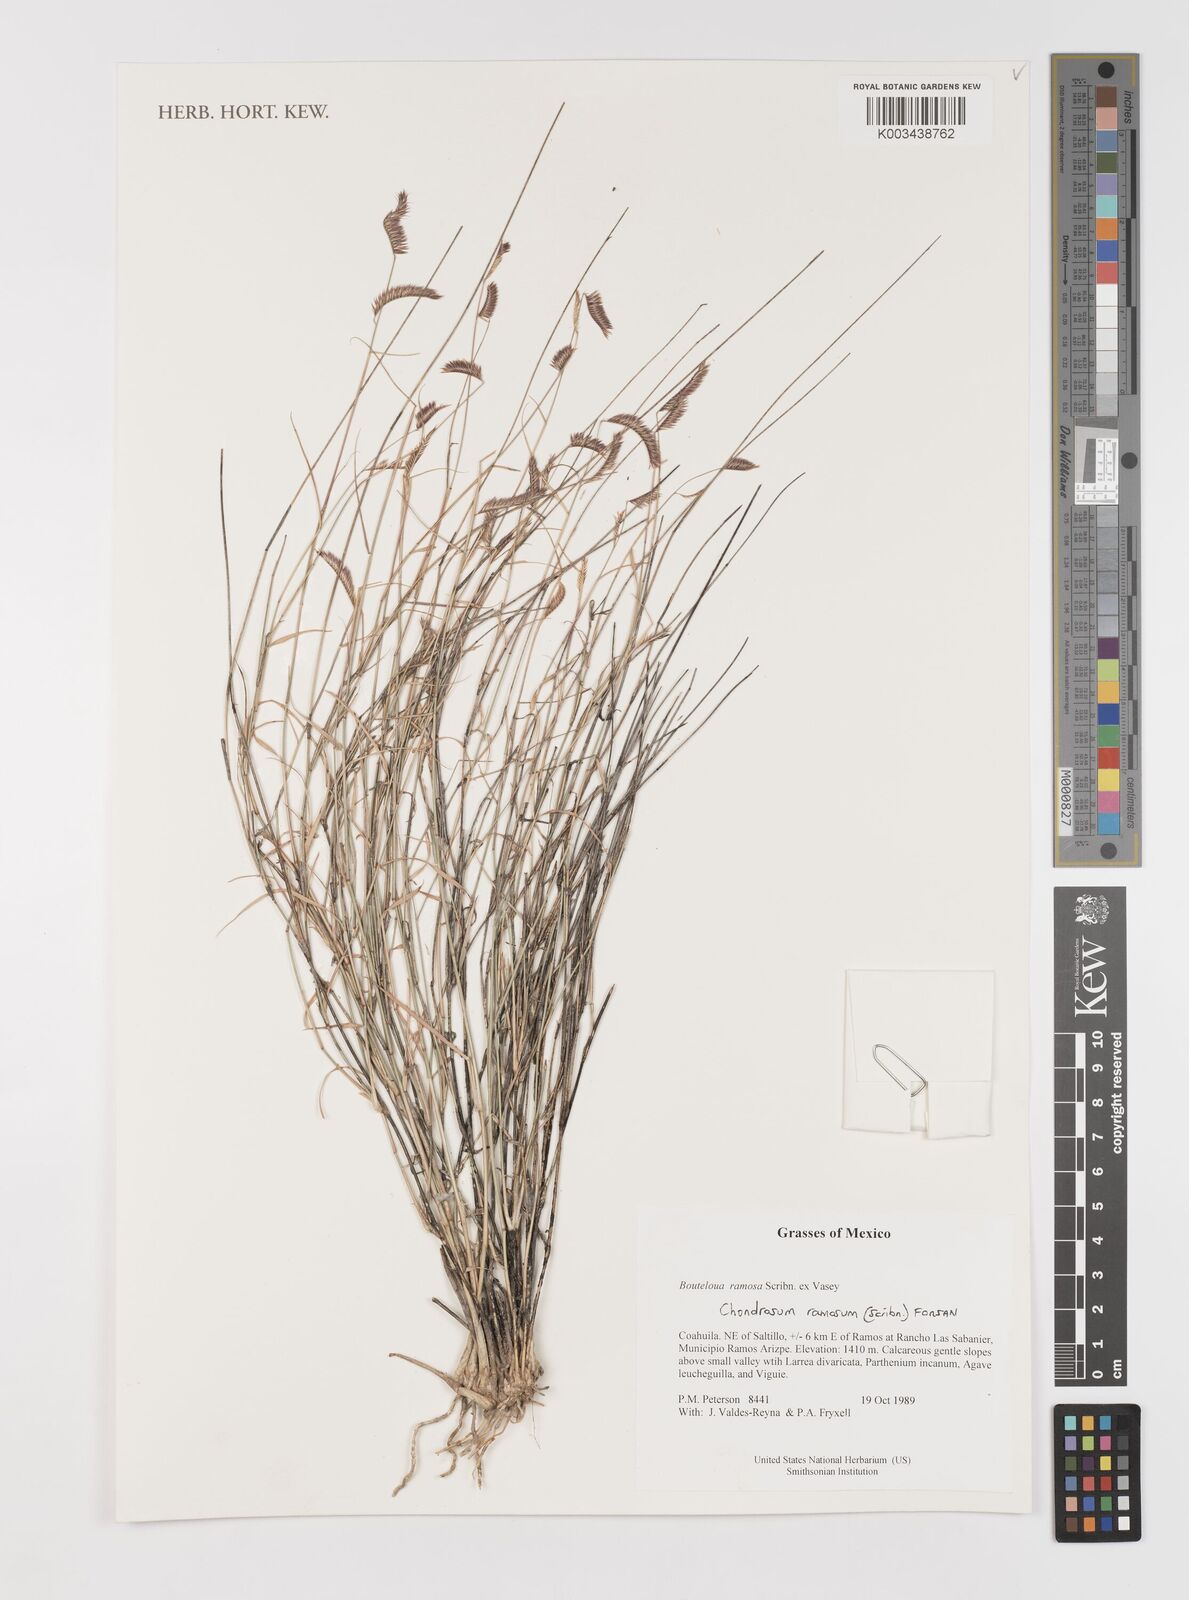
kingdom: Plantae
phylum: Tracheophyta
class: Liliopsida
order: Poales
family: Poaceae
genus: Bouteloua
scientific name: Bouteloua ramosa
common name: Chino grama
